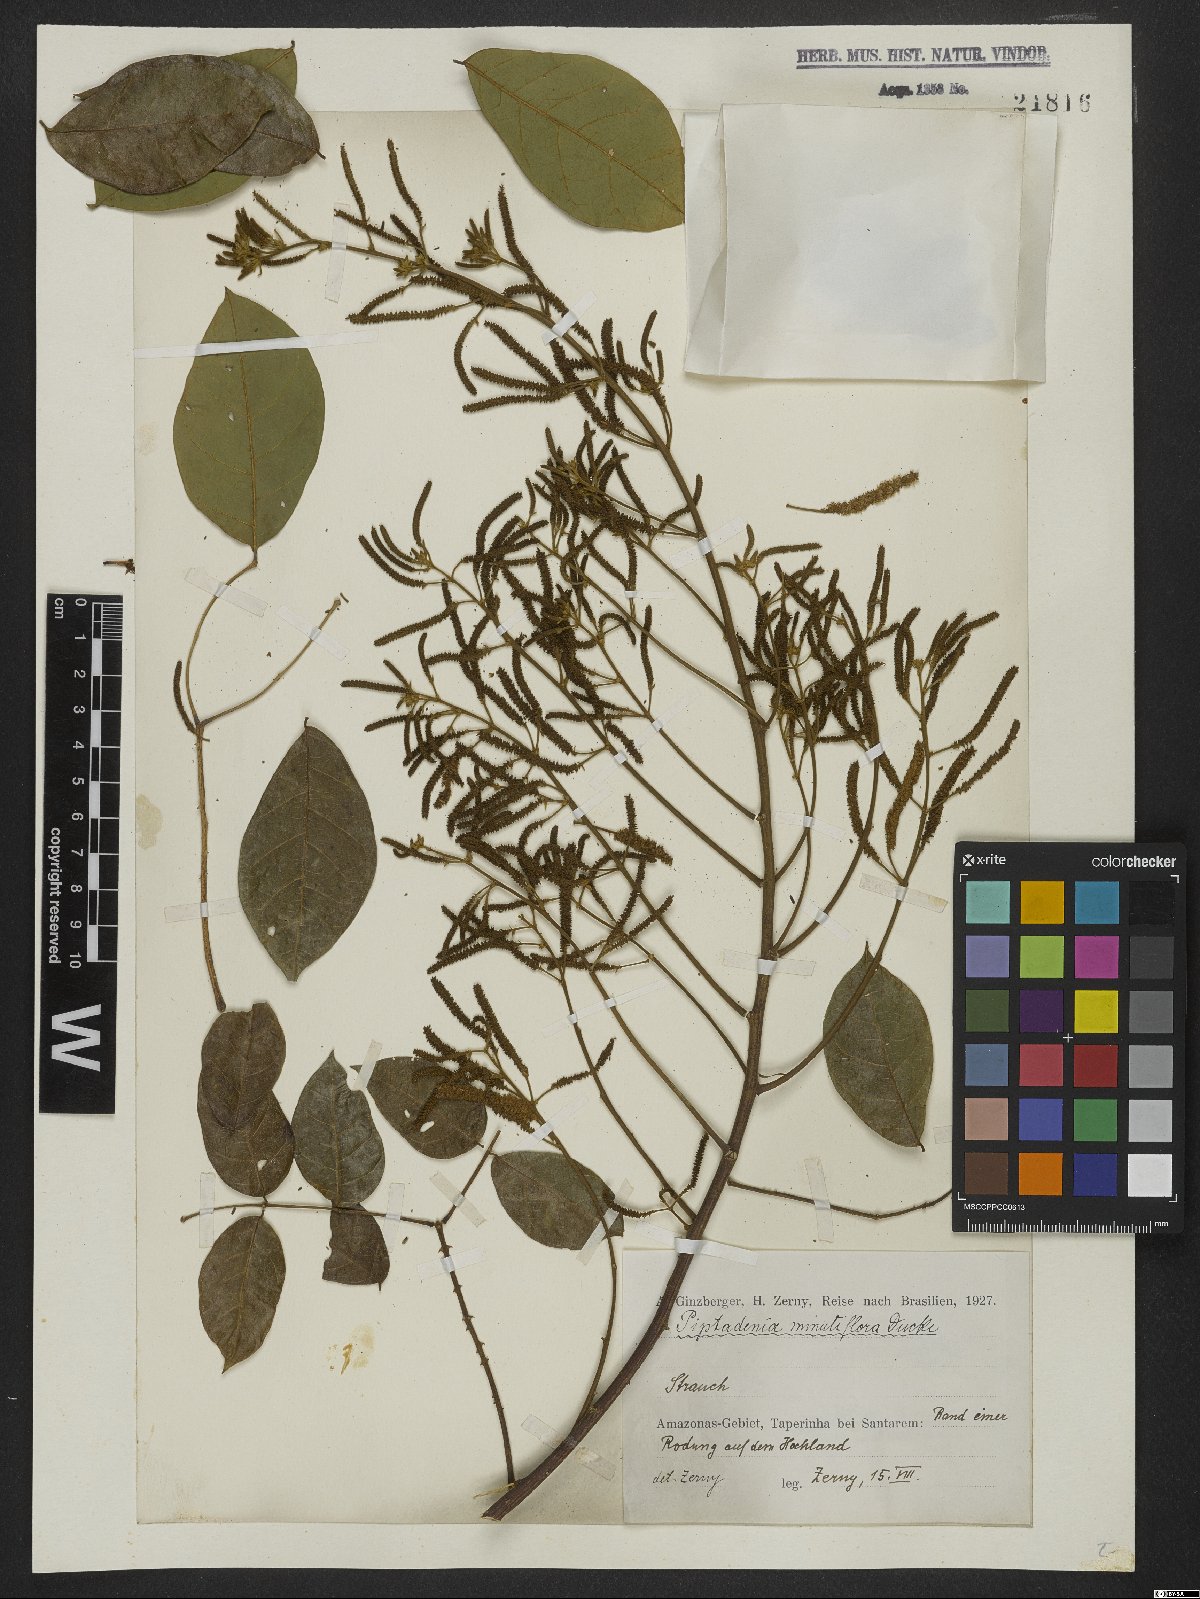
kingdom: Plantae
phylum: Tracheophyta
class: Magnoliopsida
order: Fabales
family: Fabaceae
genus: Piptadenia
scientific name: Piptadenia minutiflora
